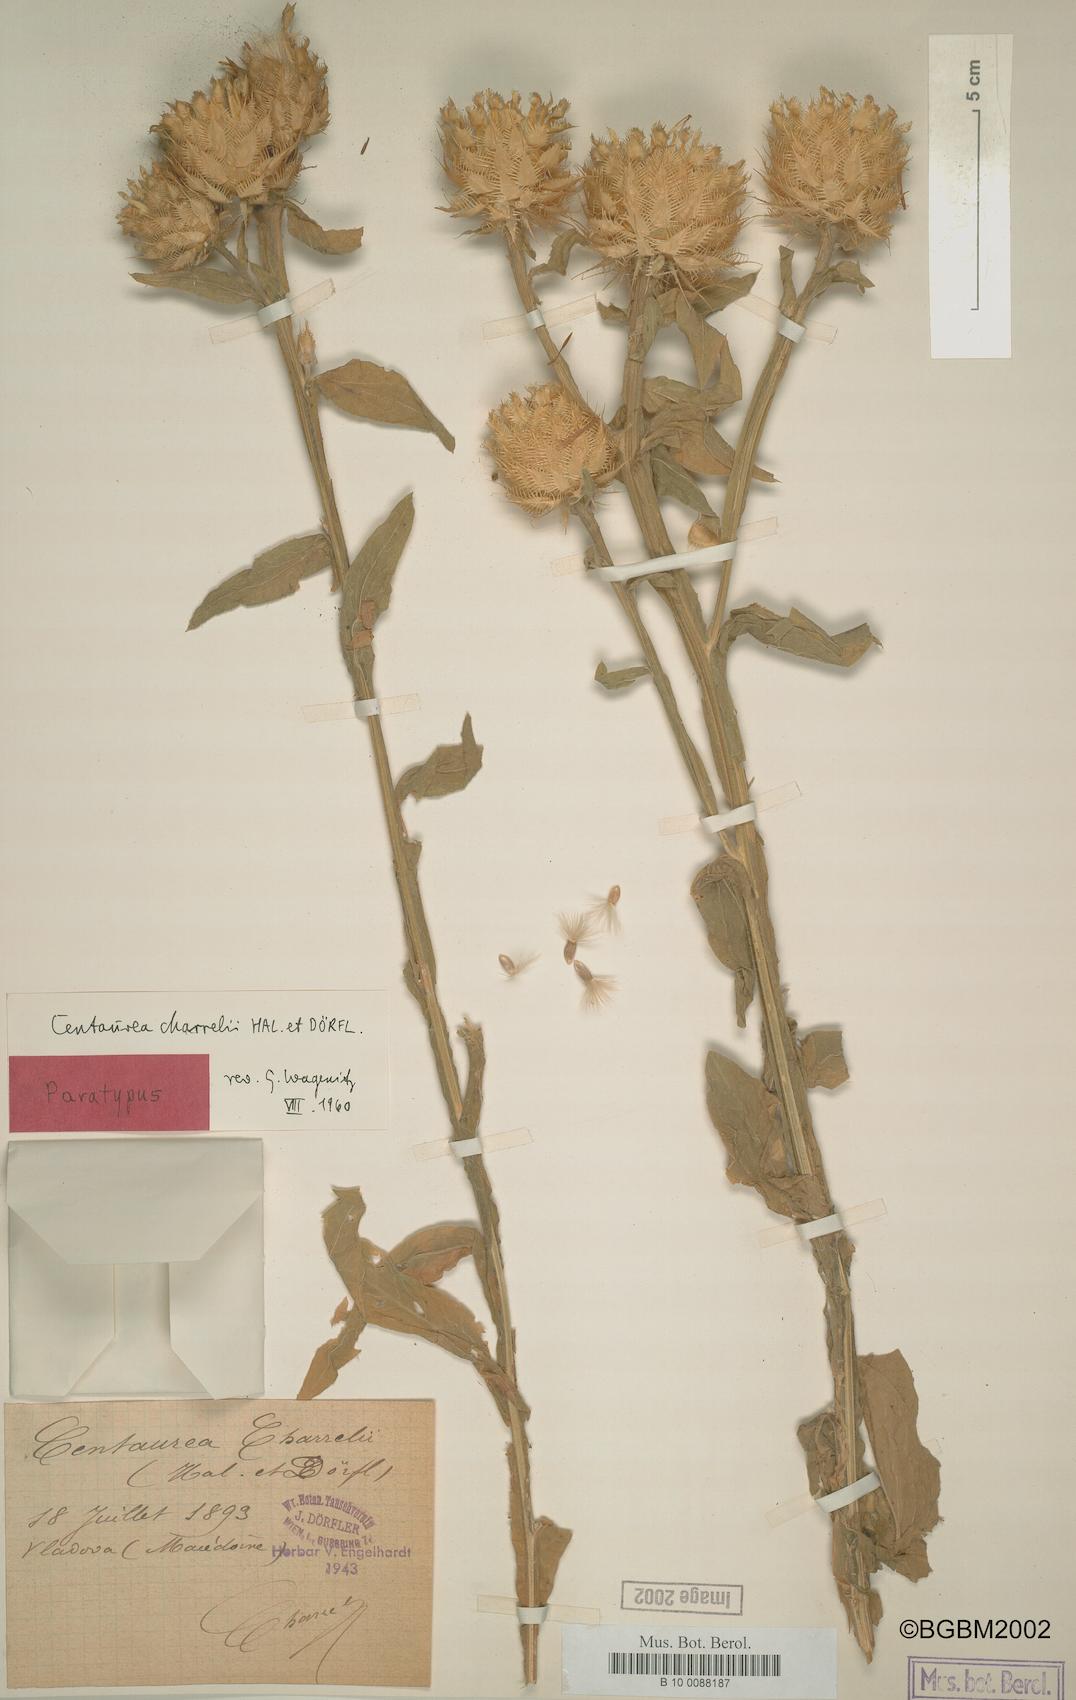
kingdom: Plantae
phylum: Tracheophyta
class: Magnoliopsida
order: Asterales
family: Asteraceae
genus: Centaurea
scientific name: Centaurea charrelii
